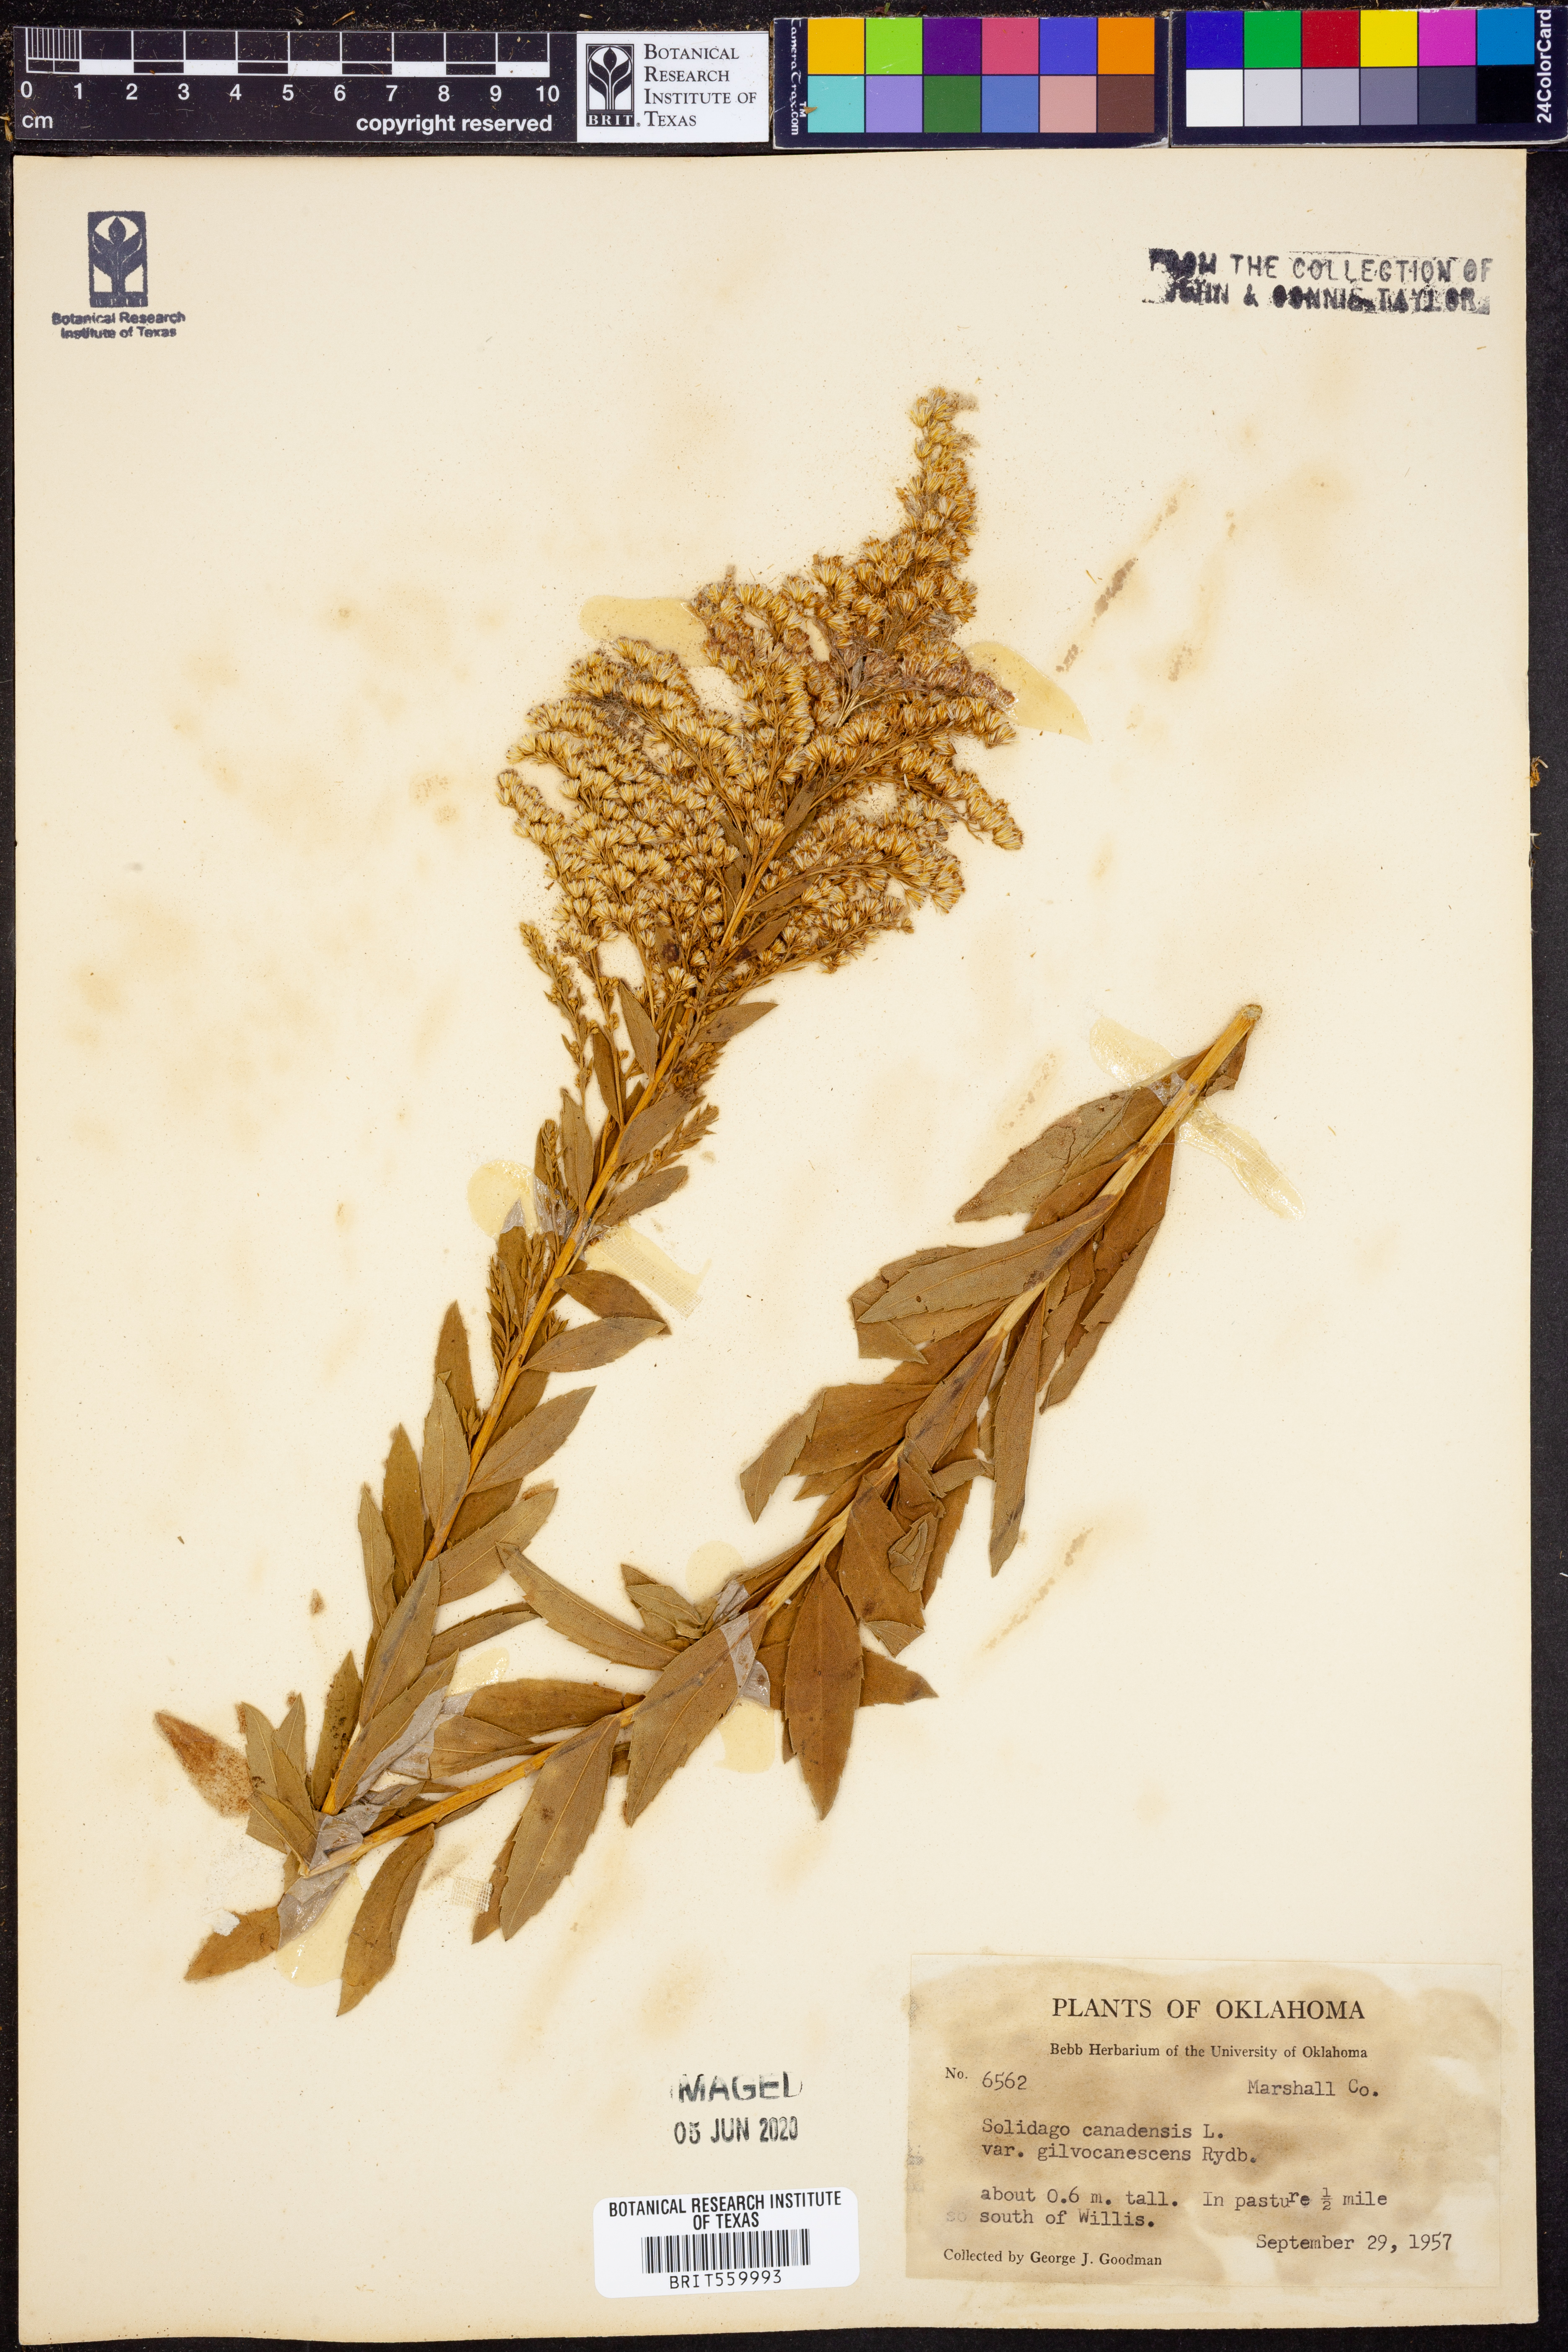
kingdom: Plantae
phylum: Tracheophyta
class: Magnoliopsida
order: Asterales
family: Asteraceae
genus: Solidago
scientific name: Solidago altissima
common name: Late goldenrod
